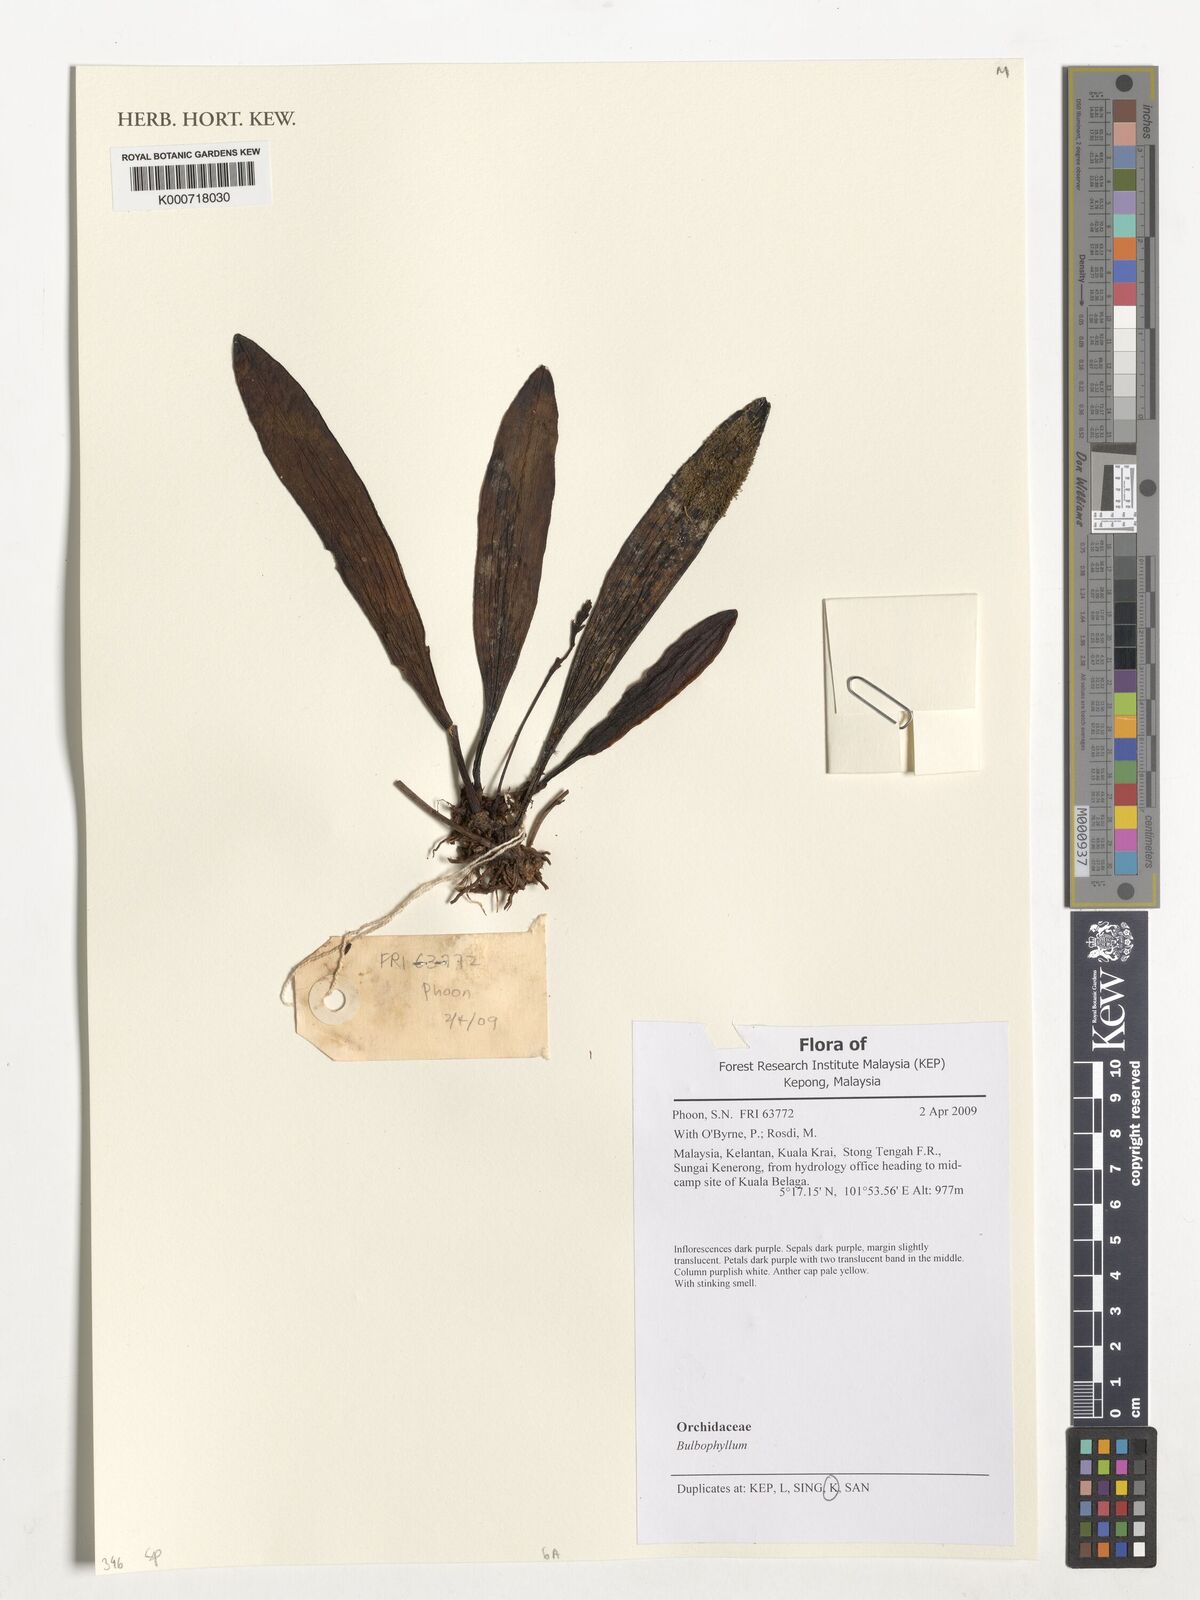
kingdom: Plantae
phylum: Tracheophyta
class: Liliopsida
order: Asparagales
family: Orchidaceae
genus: Bulbophyllum
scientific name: Bulbophyllum
